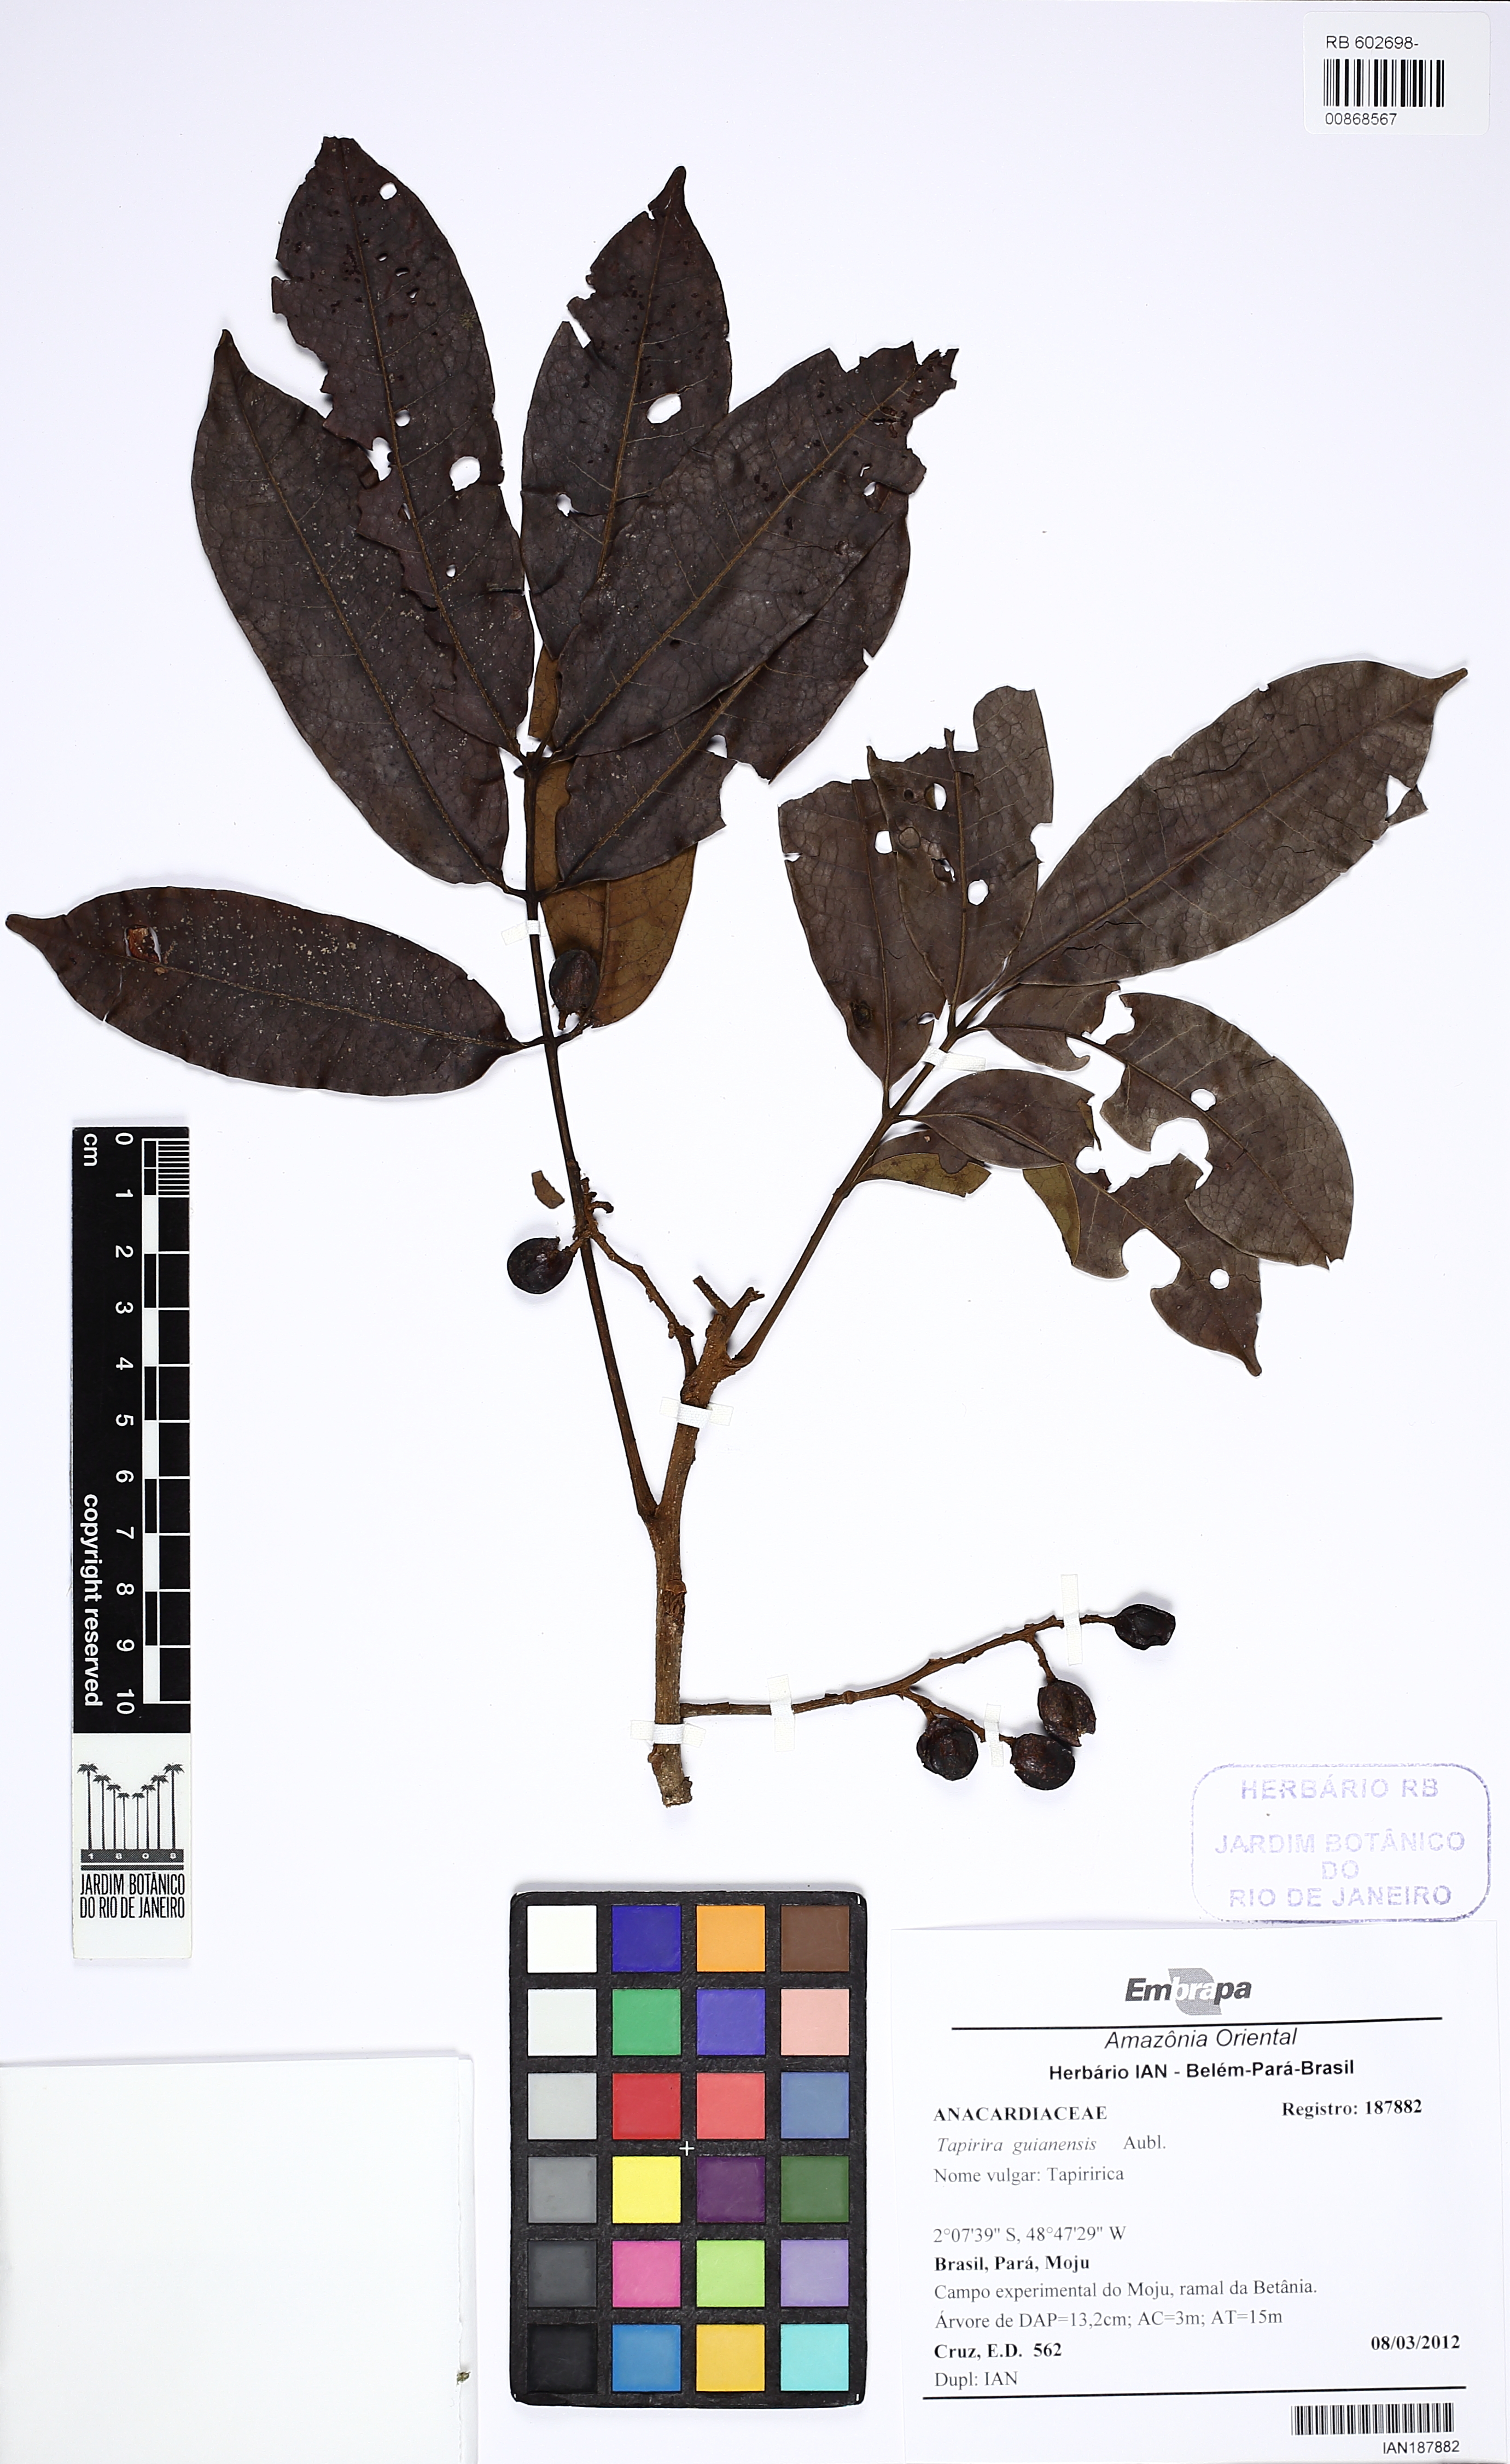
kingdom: Plantae
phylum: Tracheophyta
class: Magnoliopsida
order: Sapindales
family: Anacardiaceae
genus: Tapirira
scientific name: Tapirira guianensis
